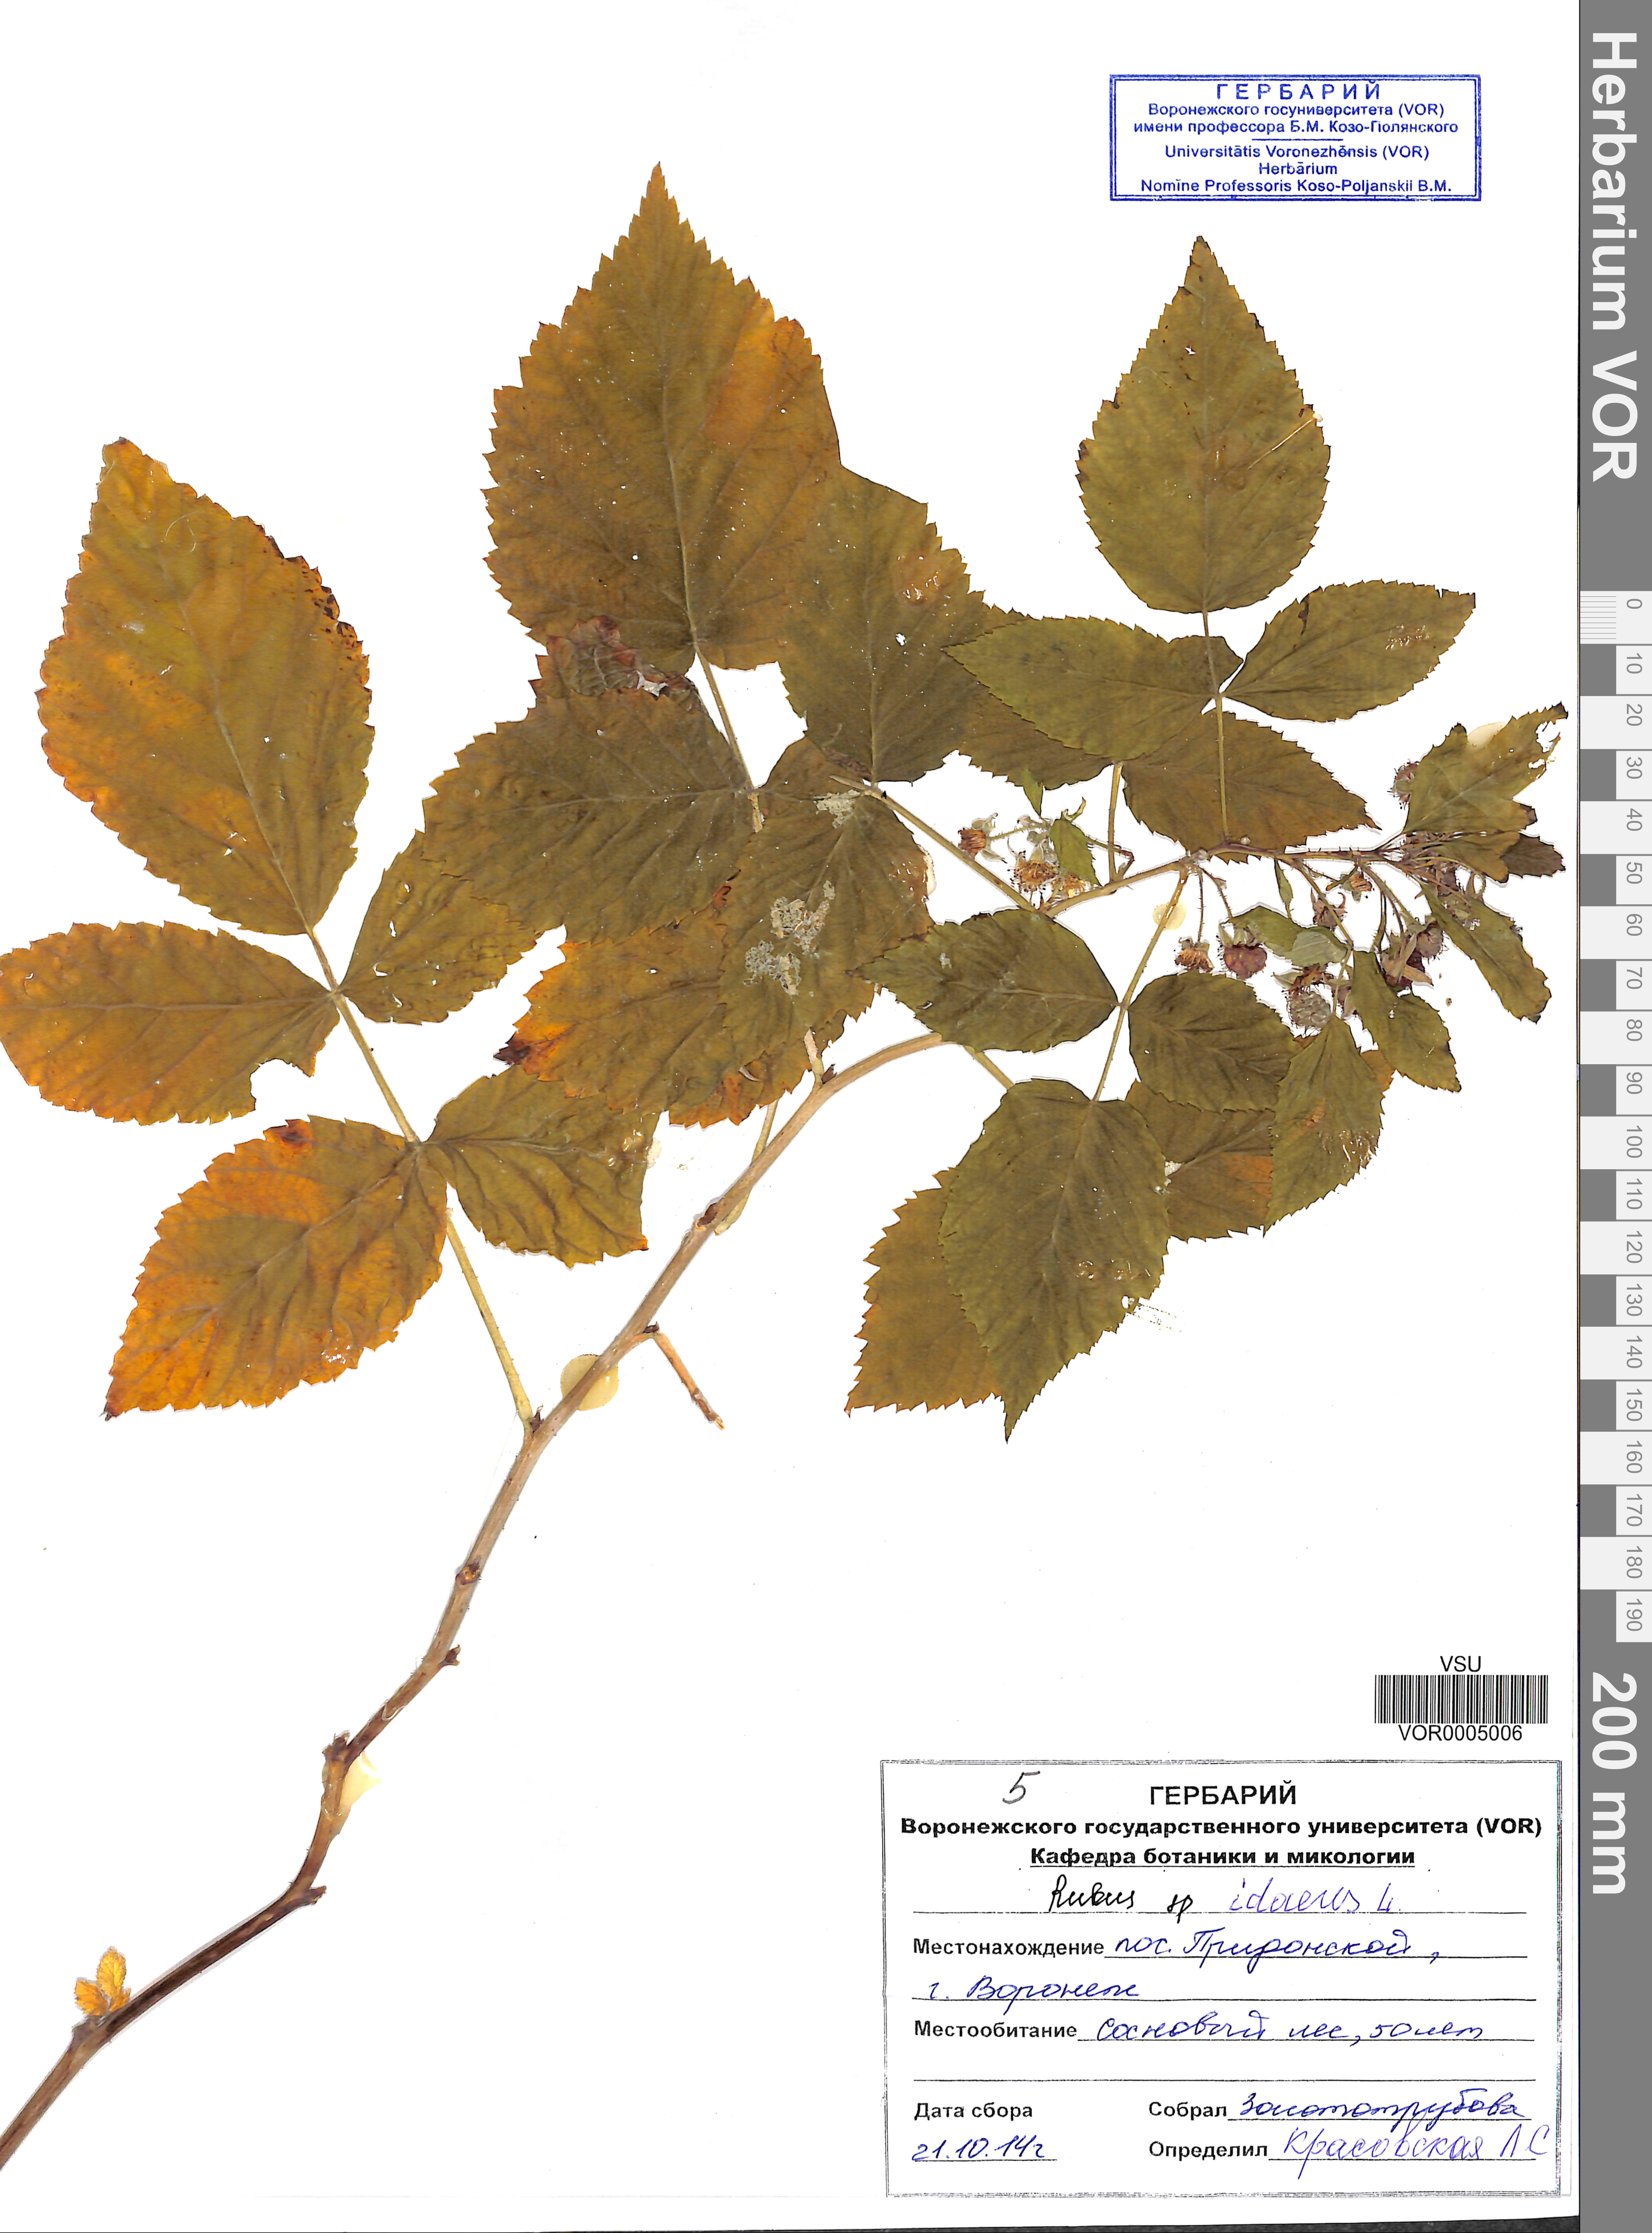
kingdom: Plantae
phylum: Tracheophyta
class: Magnoliopsida
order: Rosales
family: Rosaceae
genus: Rubus
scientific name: Rubus idaeus
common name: Raspberry
